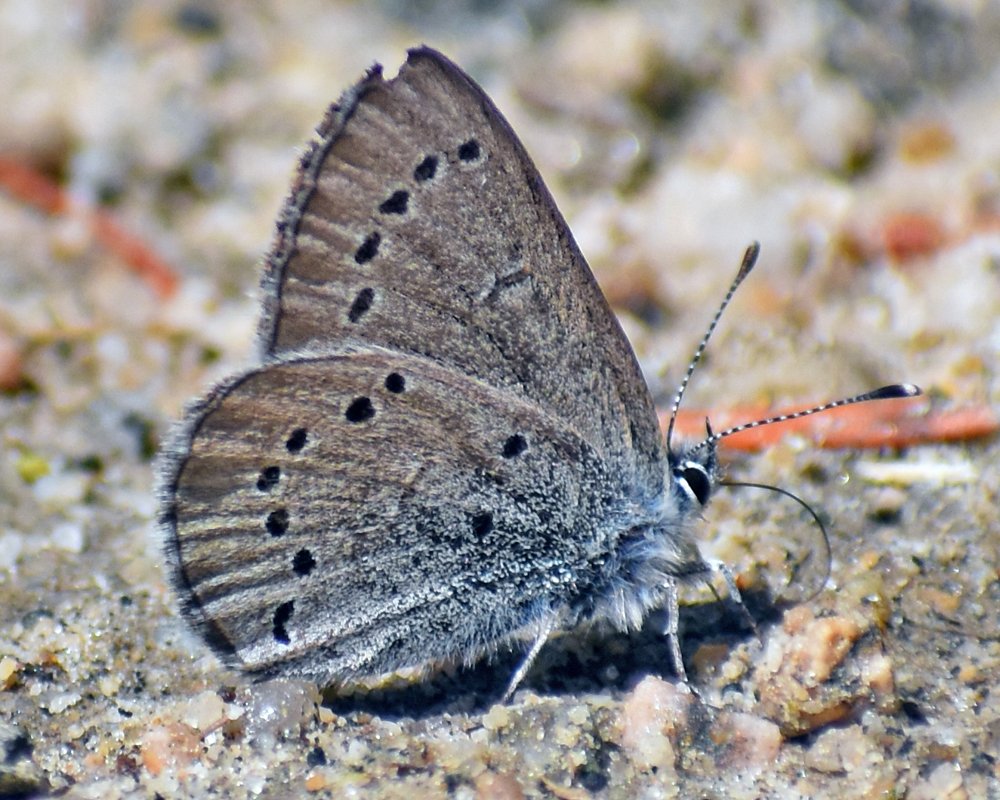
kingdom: Animalia
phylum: Arthropoda
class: Insecta
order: Lepidoptera
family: Lycaenidae
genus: Glaucopsyche
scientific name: Glaucopsyche lygdamus
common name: Silvery Blue
